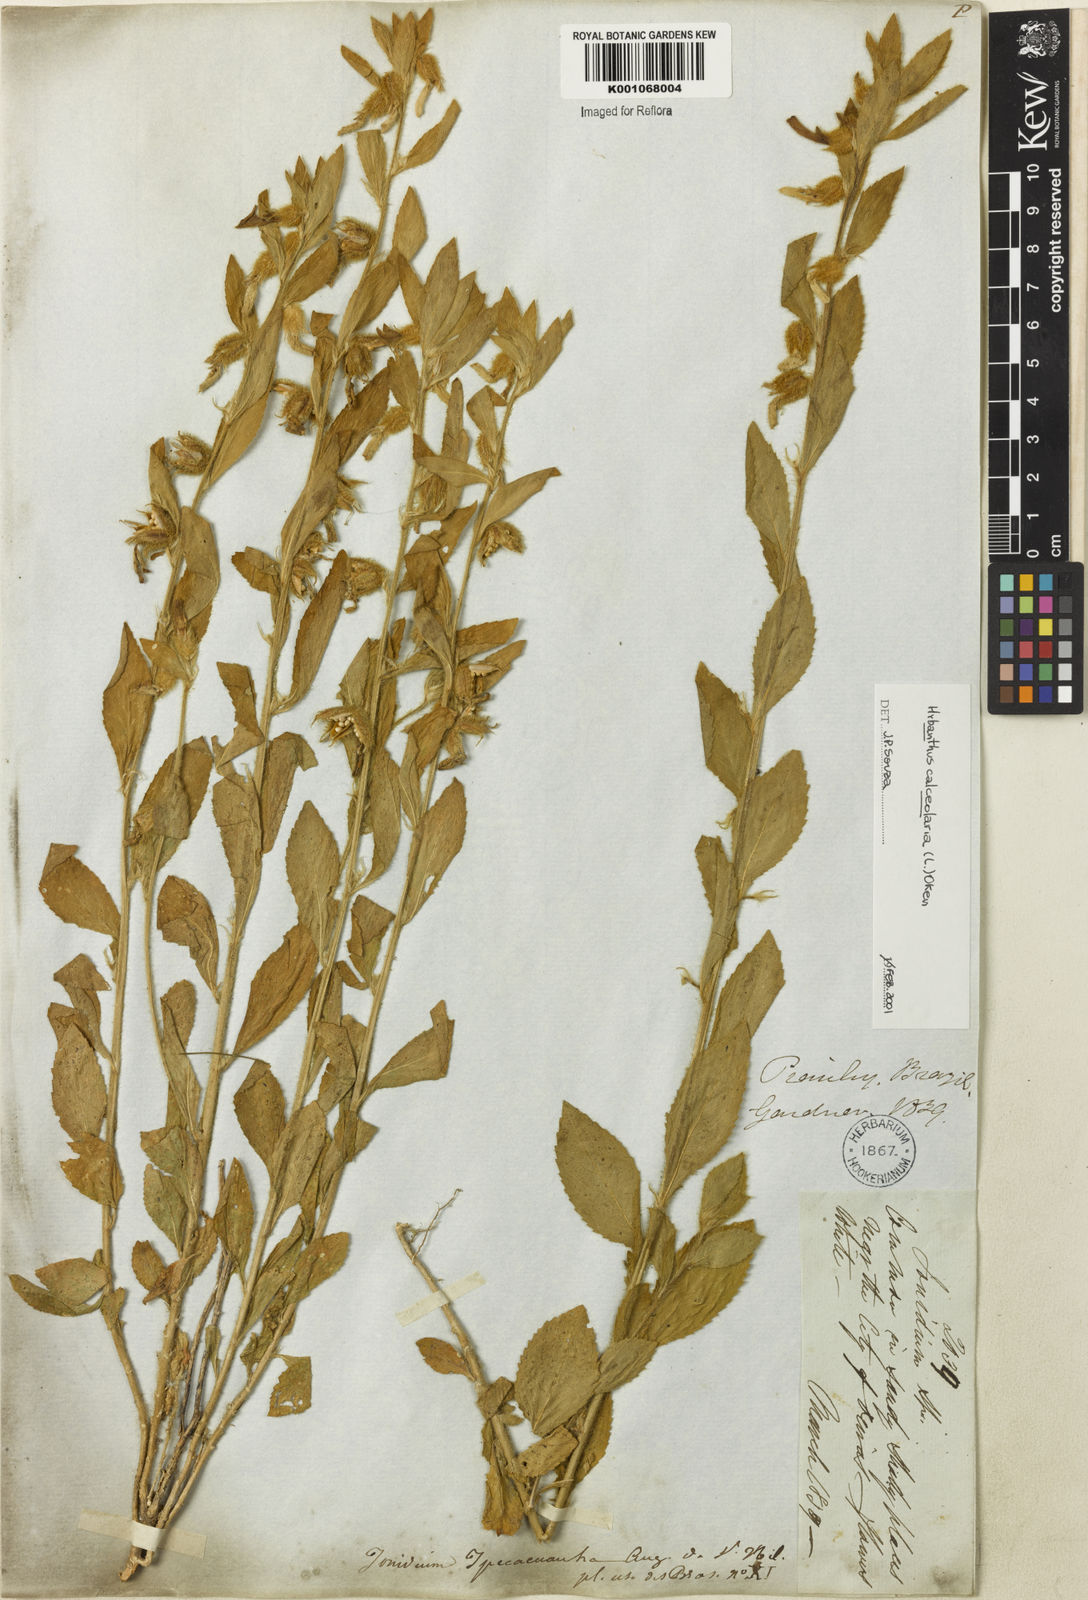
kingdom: Plantae
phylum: Tracheophyta
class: Magnoliopsida
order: Malpighiales
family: Violaceae
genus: Hybanthus
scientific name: Hybanthus
